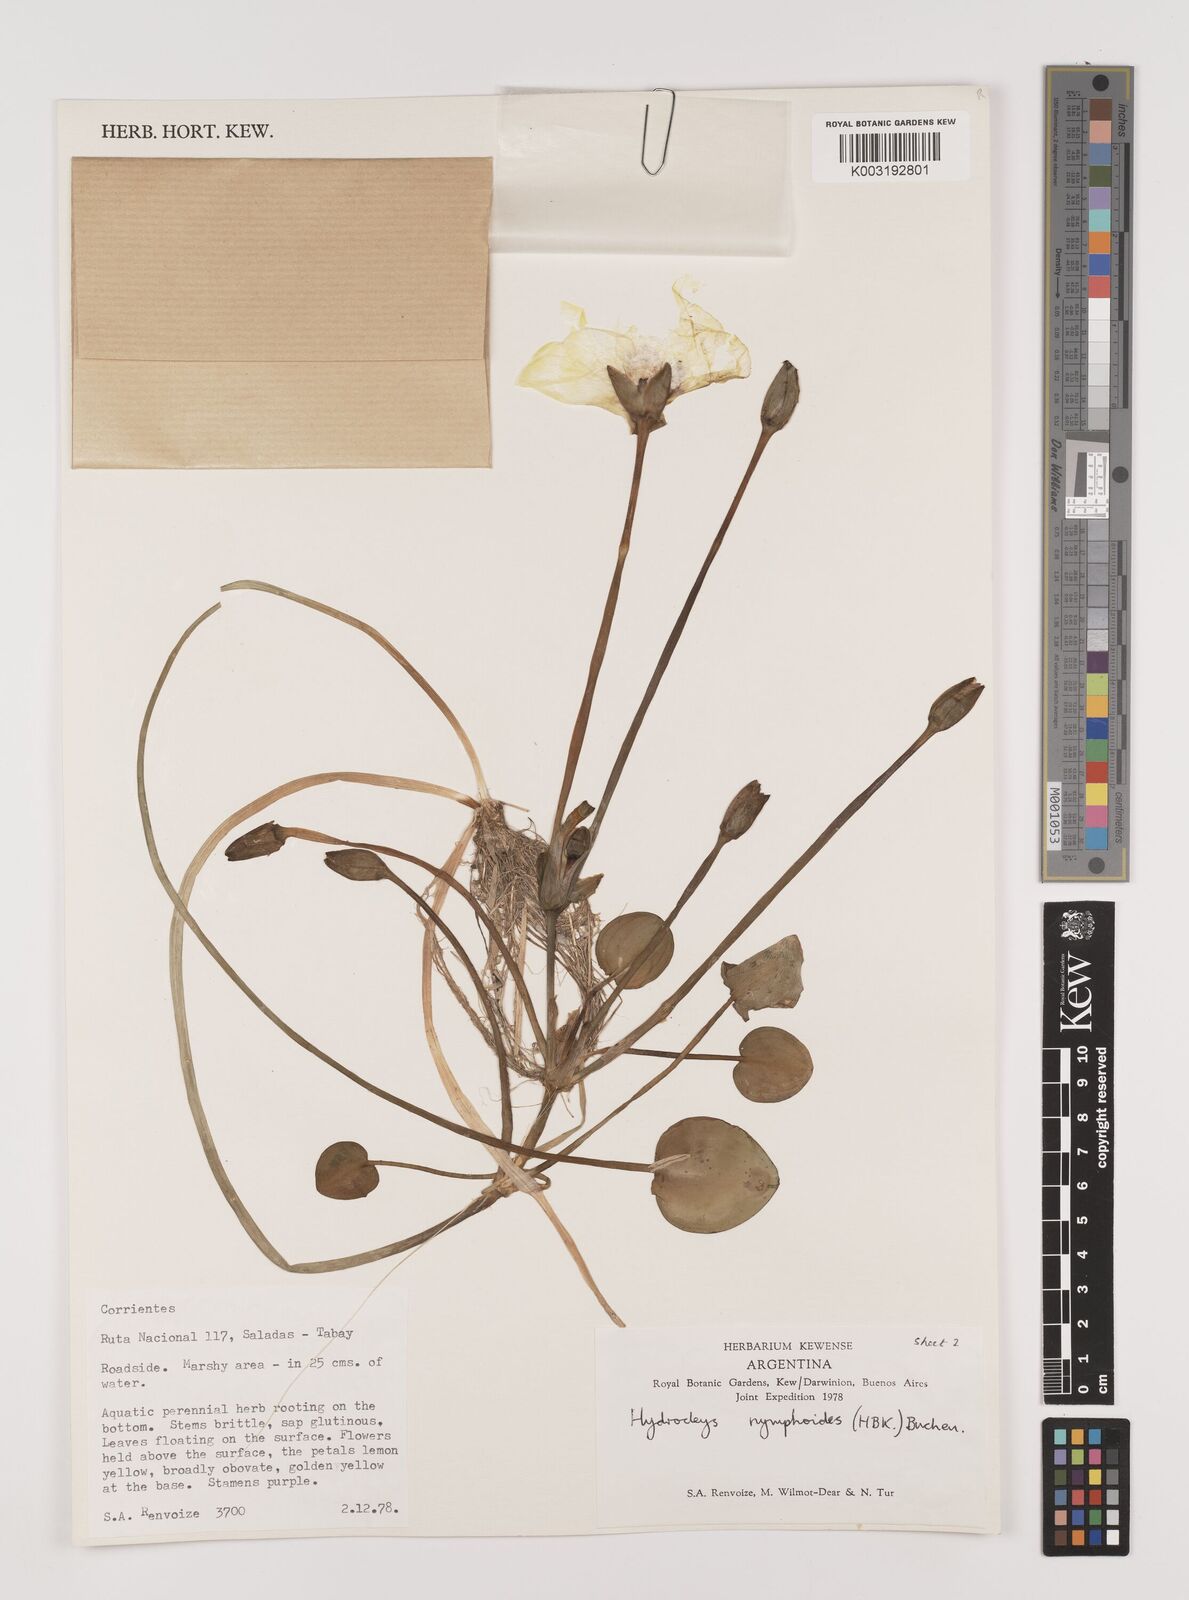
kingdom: Plantae
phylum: Tracheophyta
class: Liliopsida
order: Alismatales
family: Alismataceae
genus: Hydrocleys
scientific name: Hydrocleys nymphoides
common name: Water-poppy
